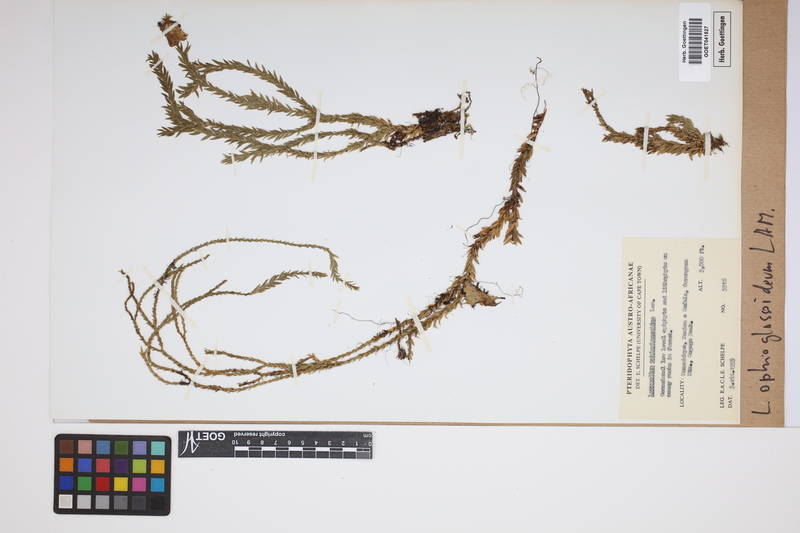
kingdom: Plantae
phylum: Tracheophyta
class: Lycopodiopsida
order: Lycopodiales
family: Lycopodiaceae
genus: Phlegmariurus
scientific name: Phlegmariurus ophioglossoides
